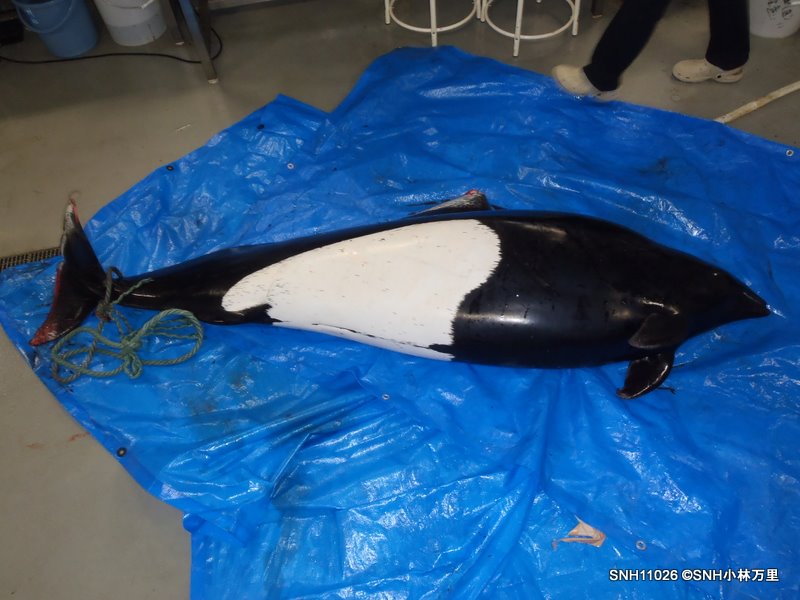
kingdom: Animalia
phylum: Chordata
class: Mammalia
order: Cetacea
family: Phocoenidae
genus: Phocoenoides
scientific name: Phocoenoides dalli
